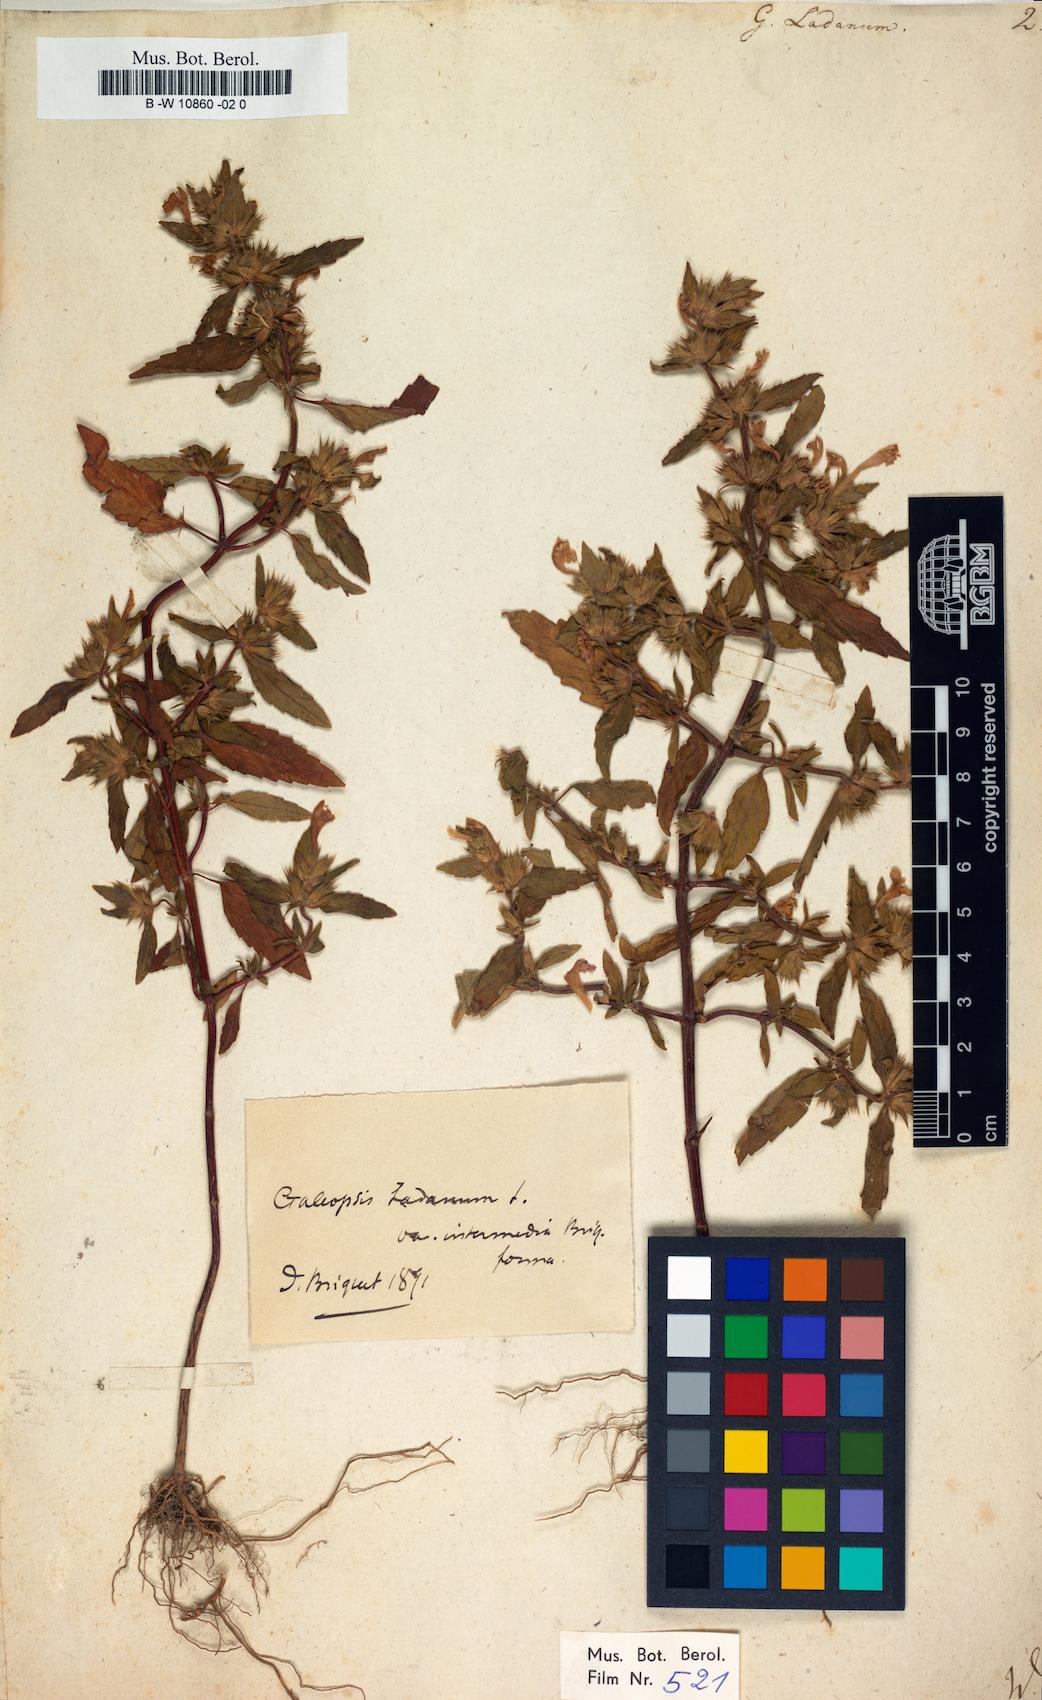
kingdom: Plantae
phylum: Tracheophyta
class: Magnoliopsida
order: Lamiales
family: Lamiaceae
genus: Galeopsis
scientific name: Galeopsis ladanum
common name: Broad-leaved hemp-nettle
